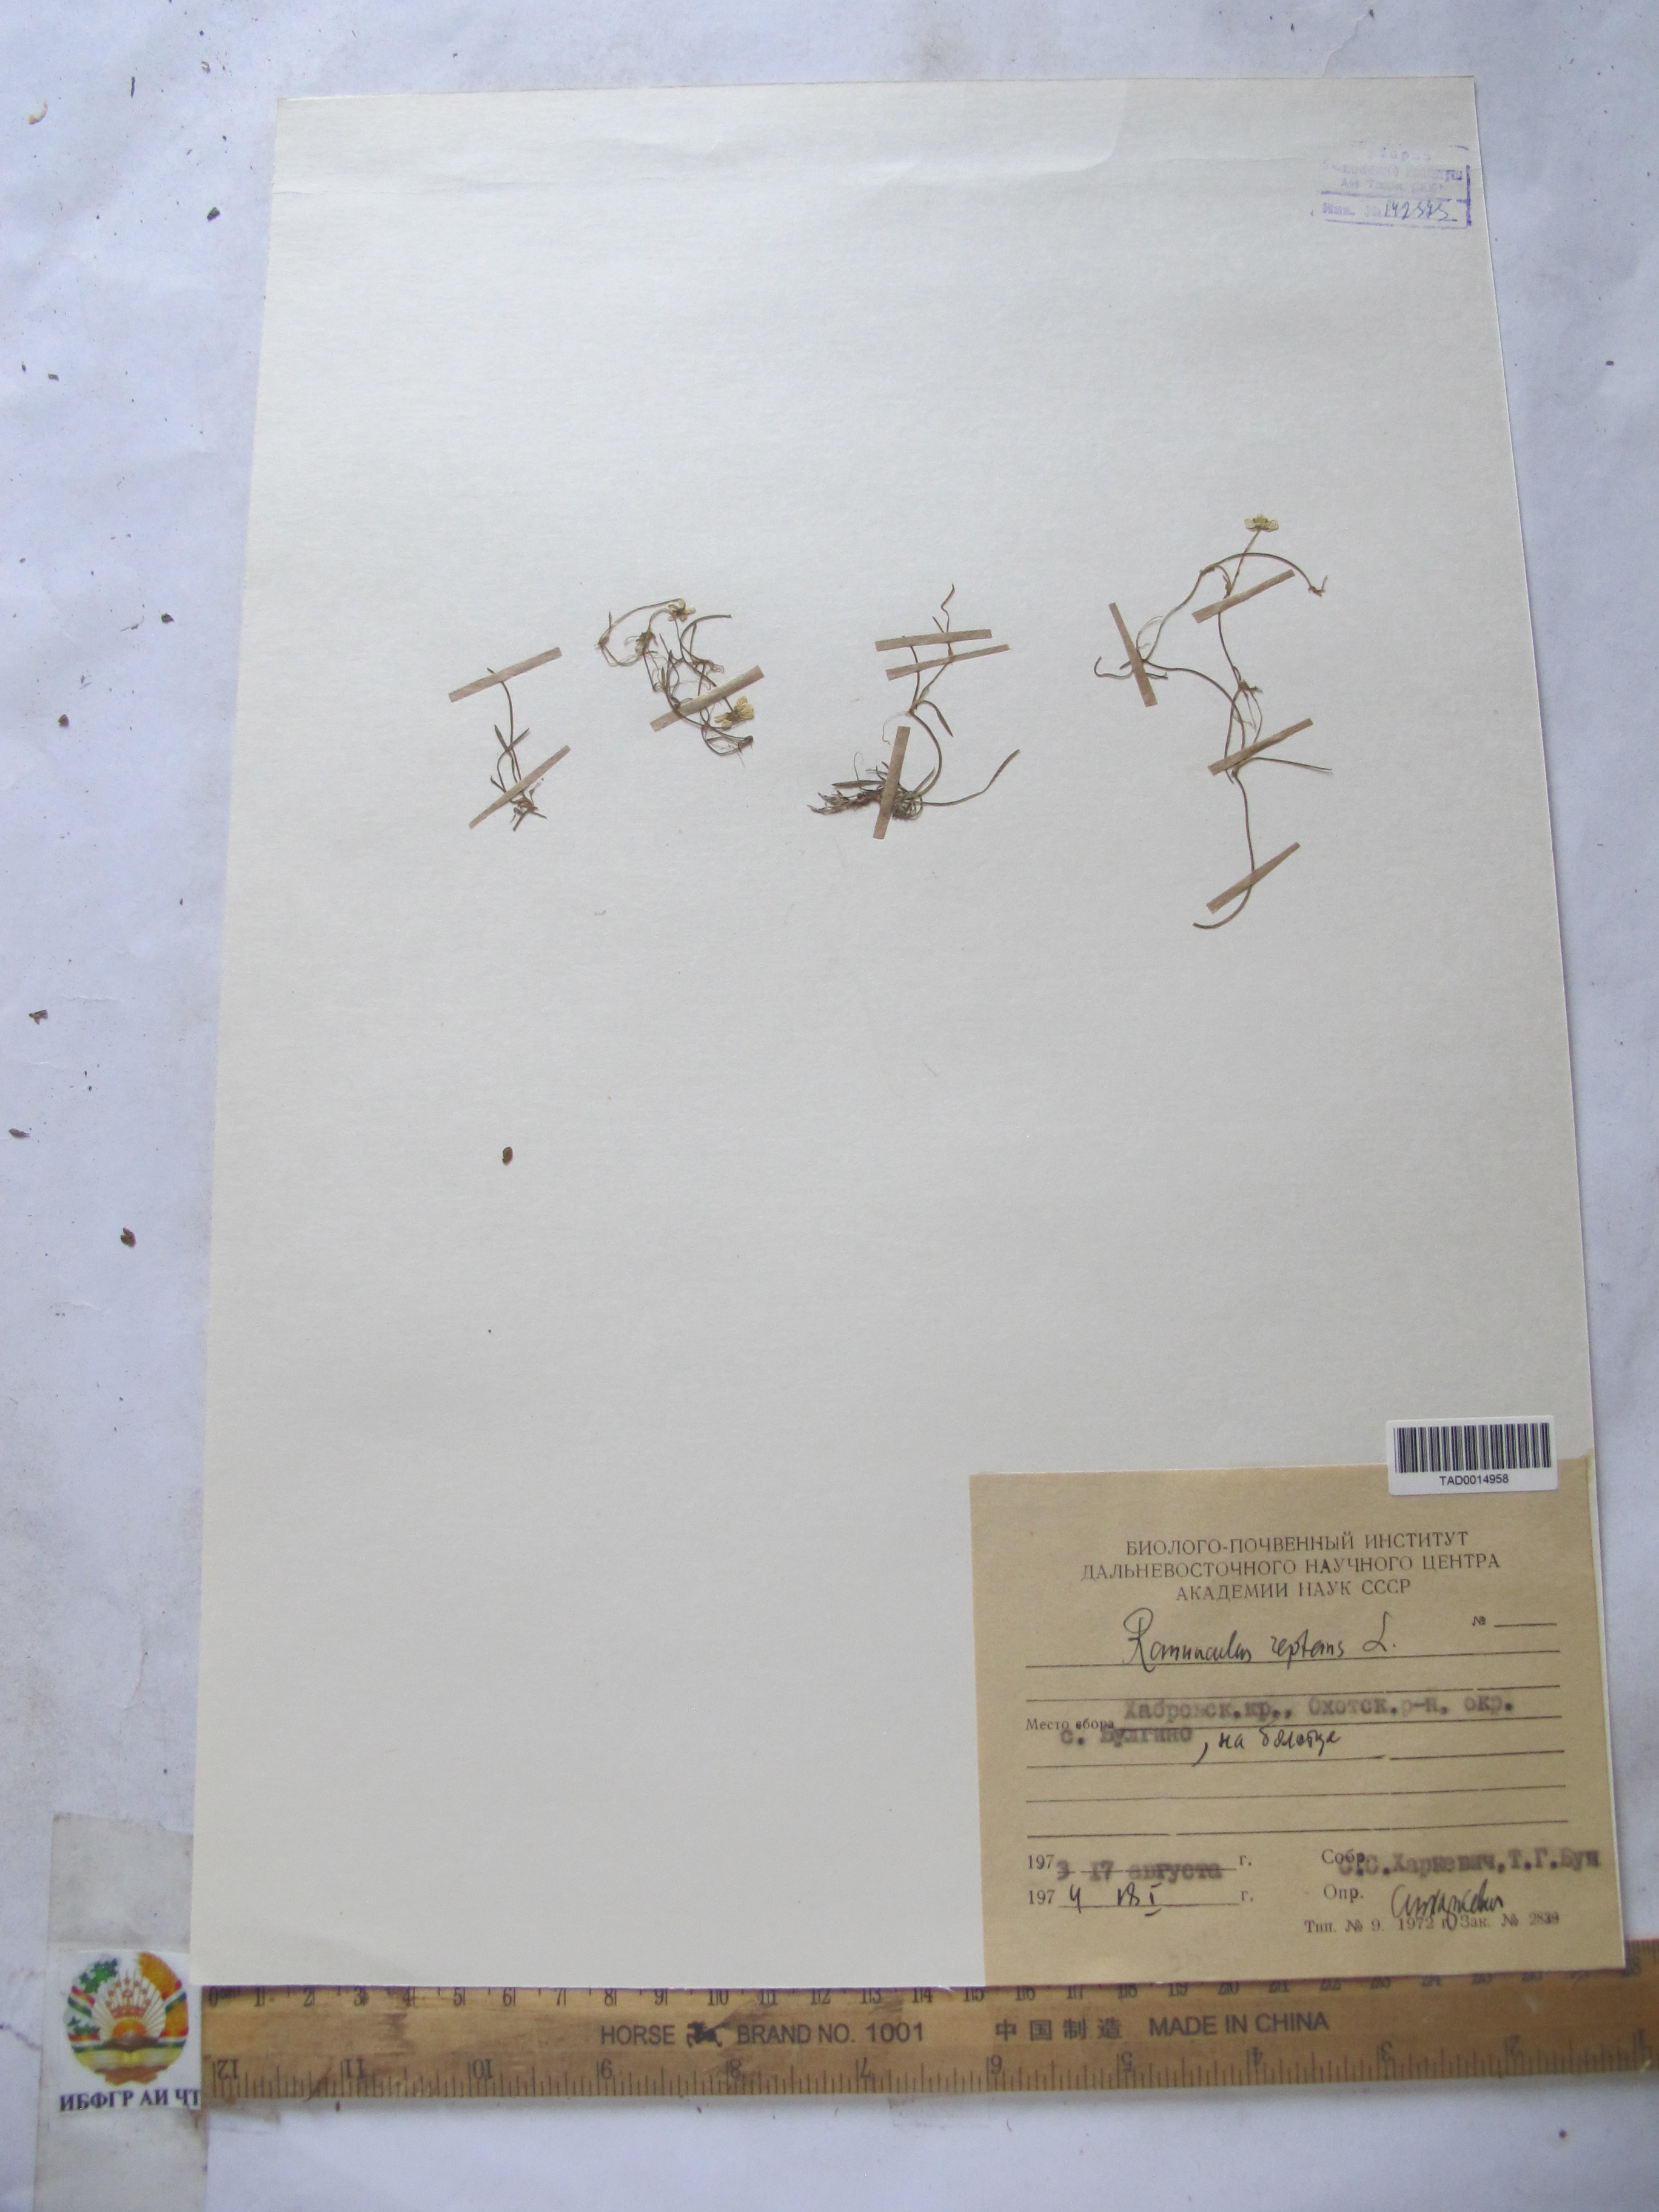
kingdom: Plantae
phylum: Tracheophyta
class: Magnoliopsida
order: Ranunculales
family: Ranunculaceae
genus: Ranunculus
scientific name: Ranunculus repens
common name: Creeping buttercup
